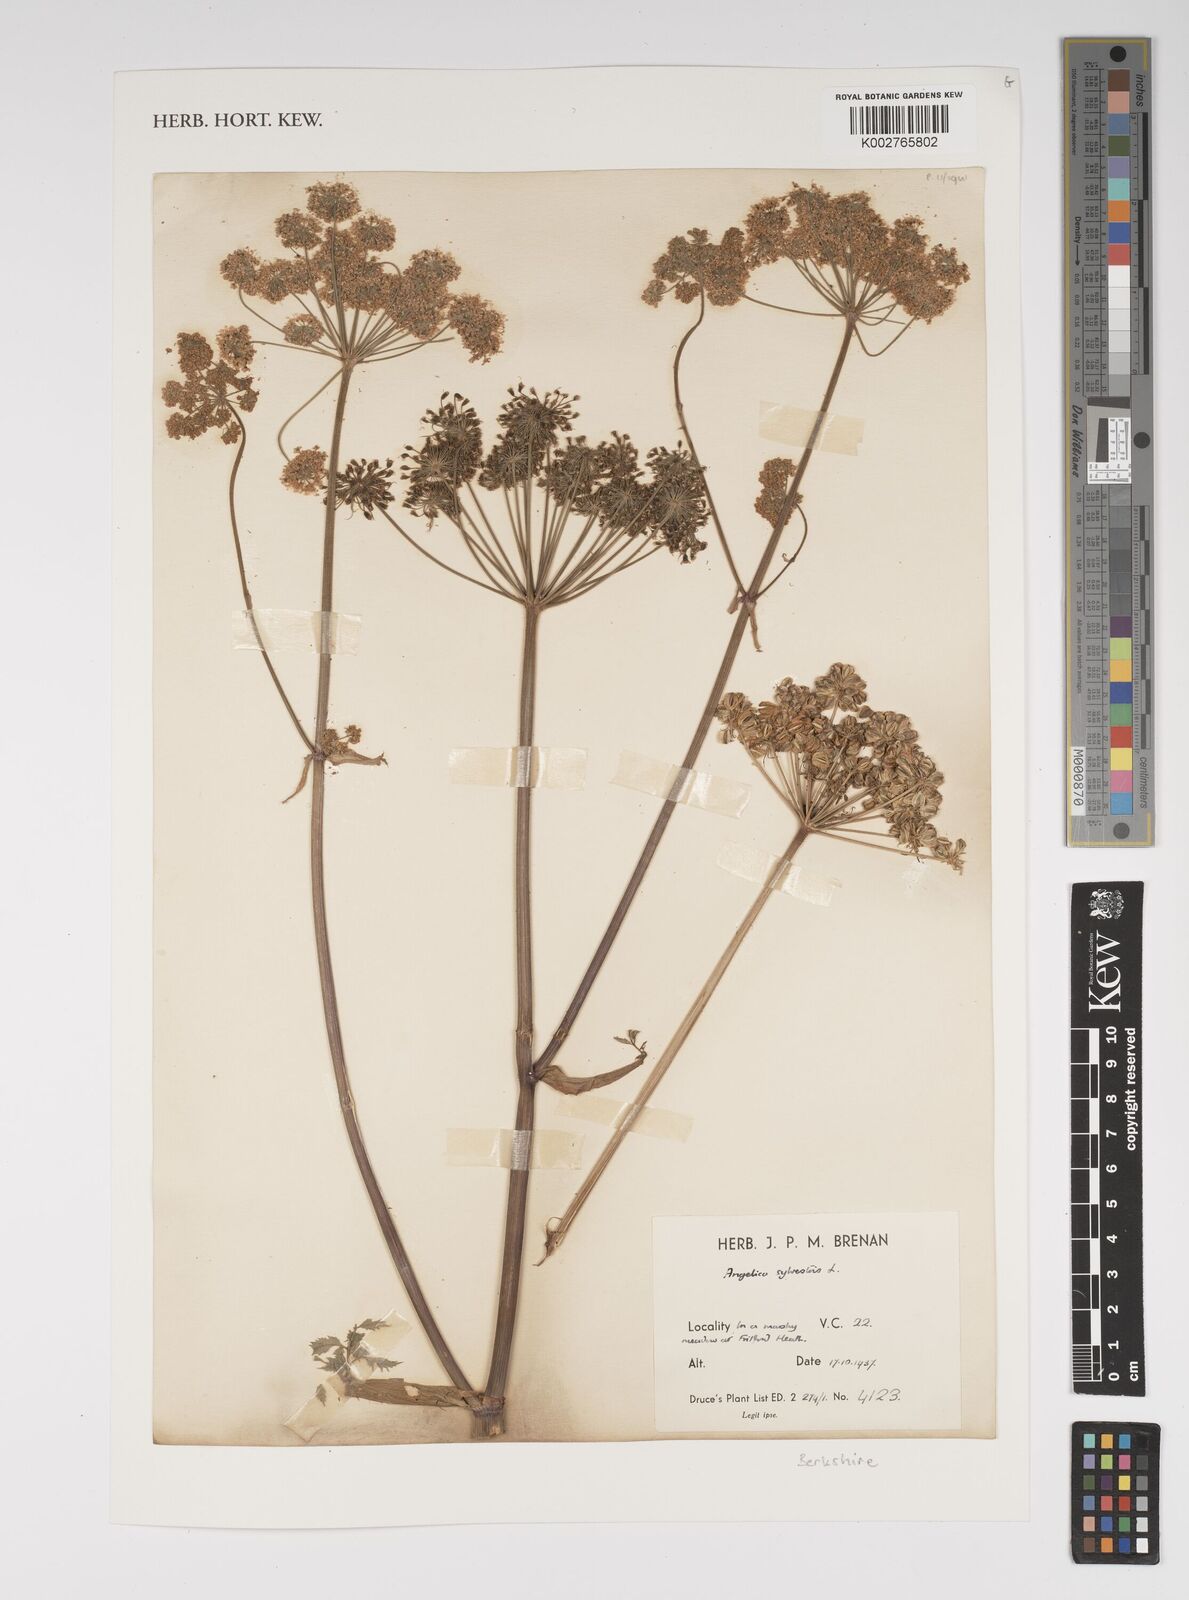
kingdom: Plantae
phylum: Tracheophyta
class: Magnoliopsida
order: Apiales
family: Apiaceae
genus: Angelica
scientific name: Angelica sylvestris
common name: Wild angelica
